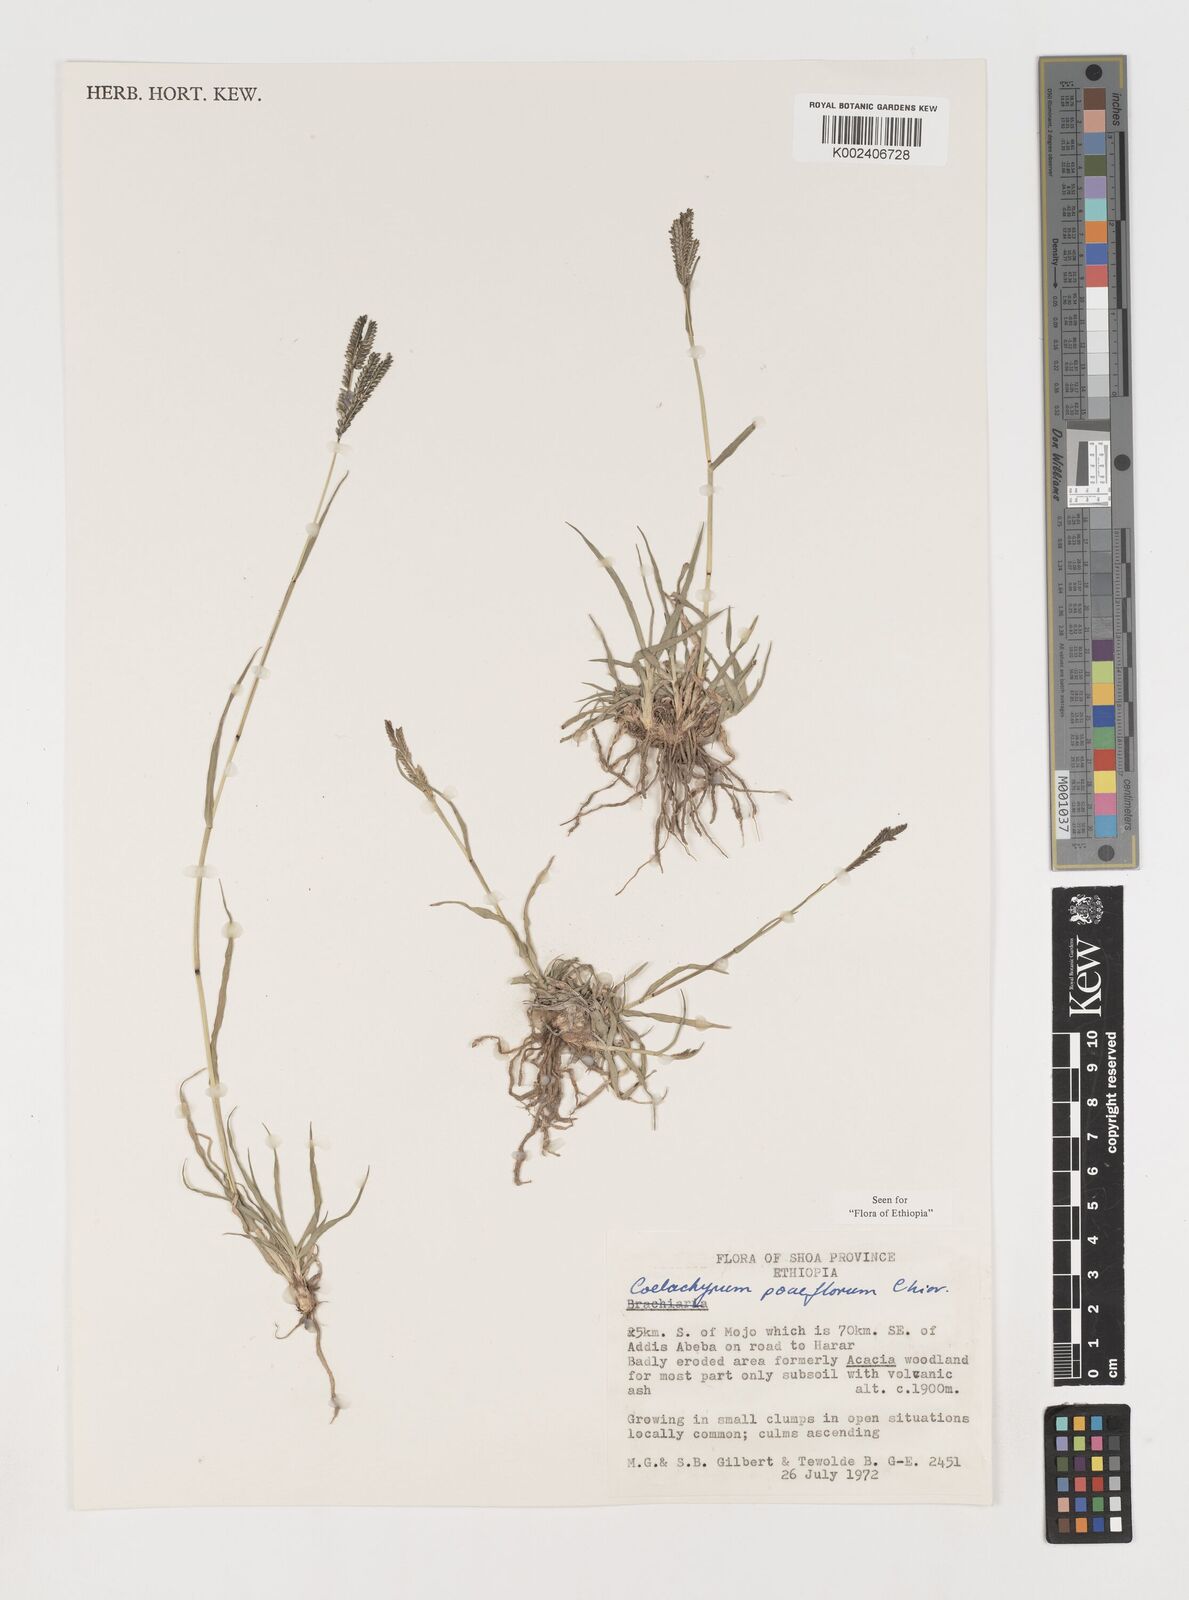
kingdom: Plantae
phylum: Tracheophyta
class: Liliopsida
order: Poales
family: Poaceae
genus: Coelachyrum
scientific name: Coelachyrum poiflorum
